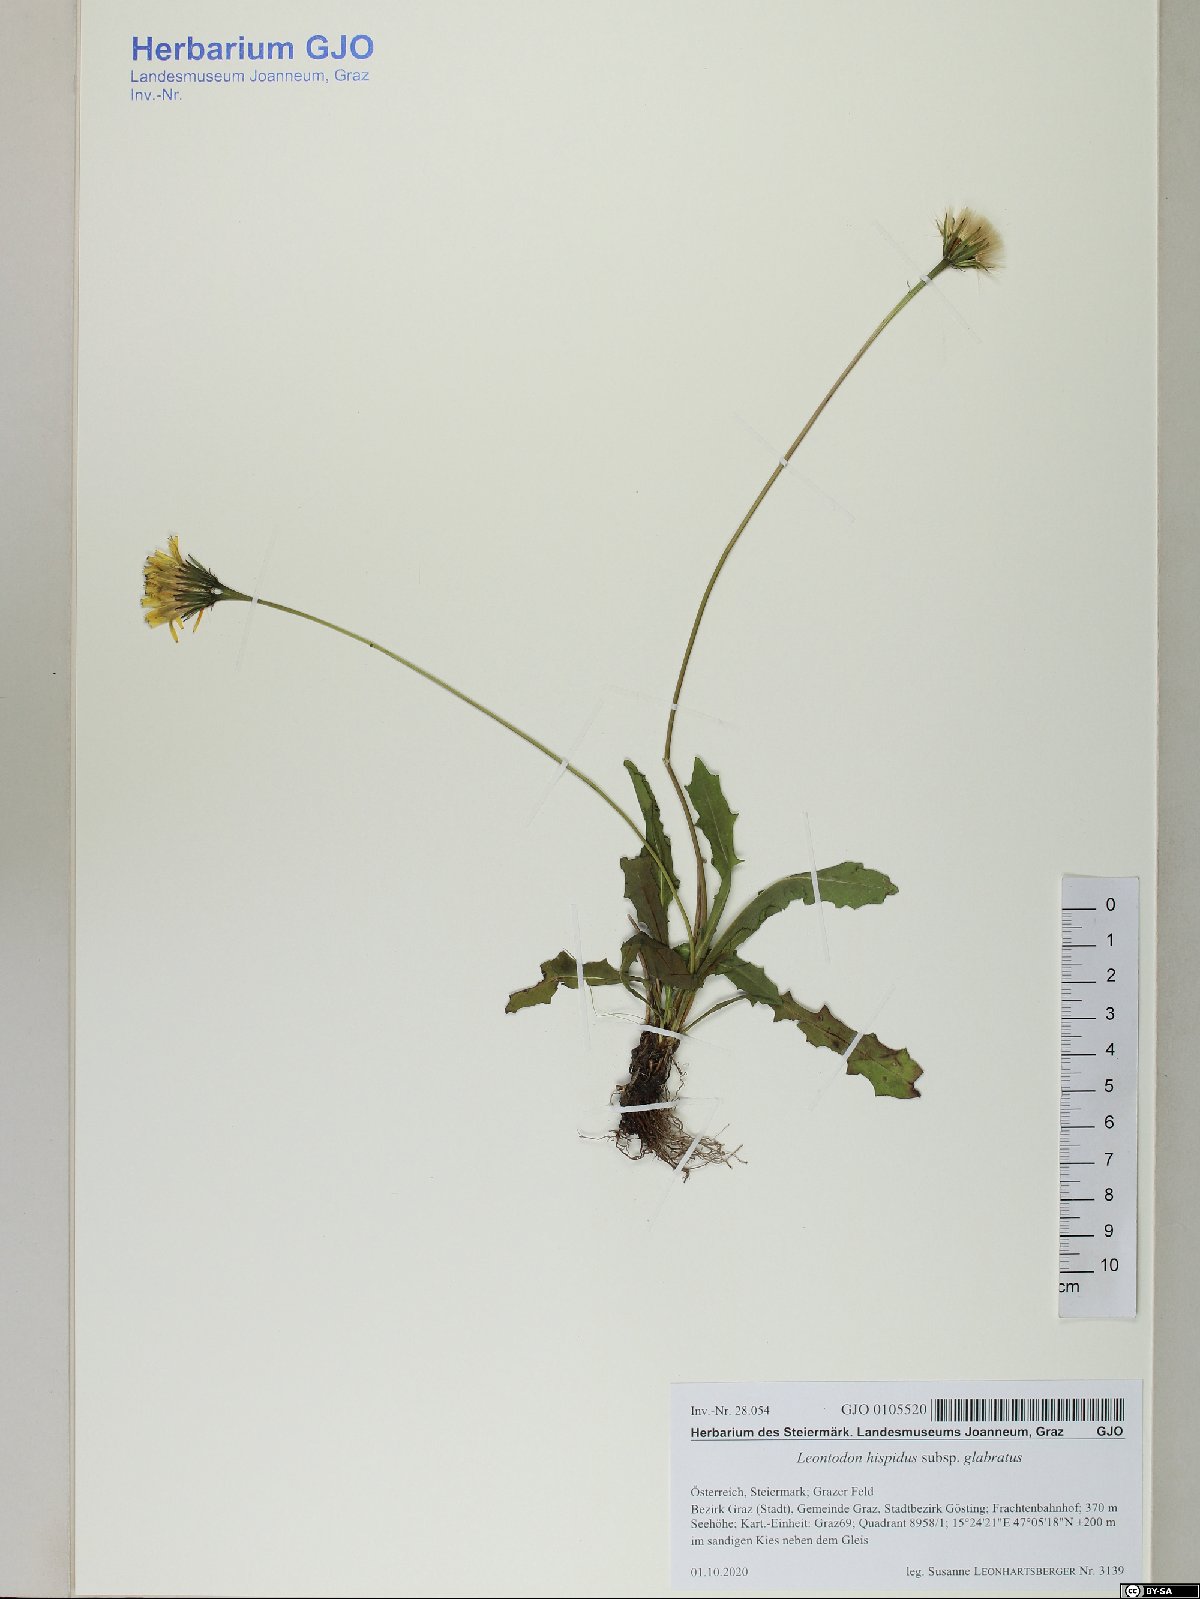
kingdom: Plantae
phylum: Tracheophyta
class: Magnoliopsida
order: Asterales
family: Asteraceae
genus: Leontodon
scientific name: Leontodon hispidus
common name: Rough hawkbit
